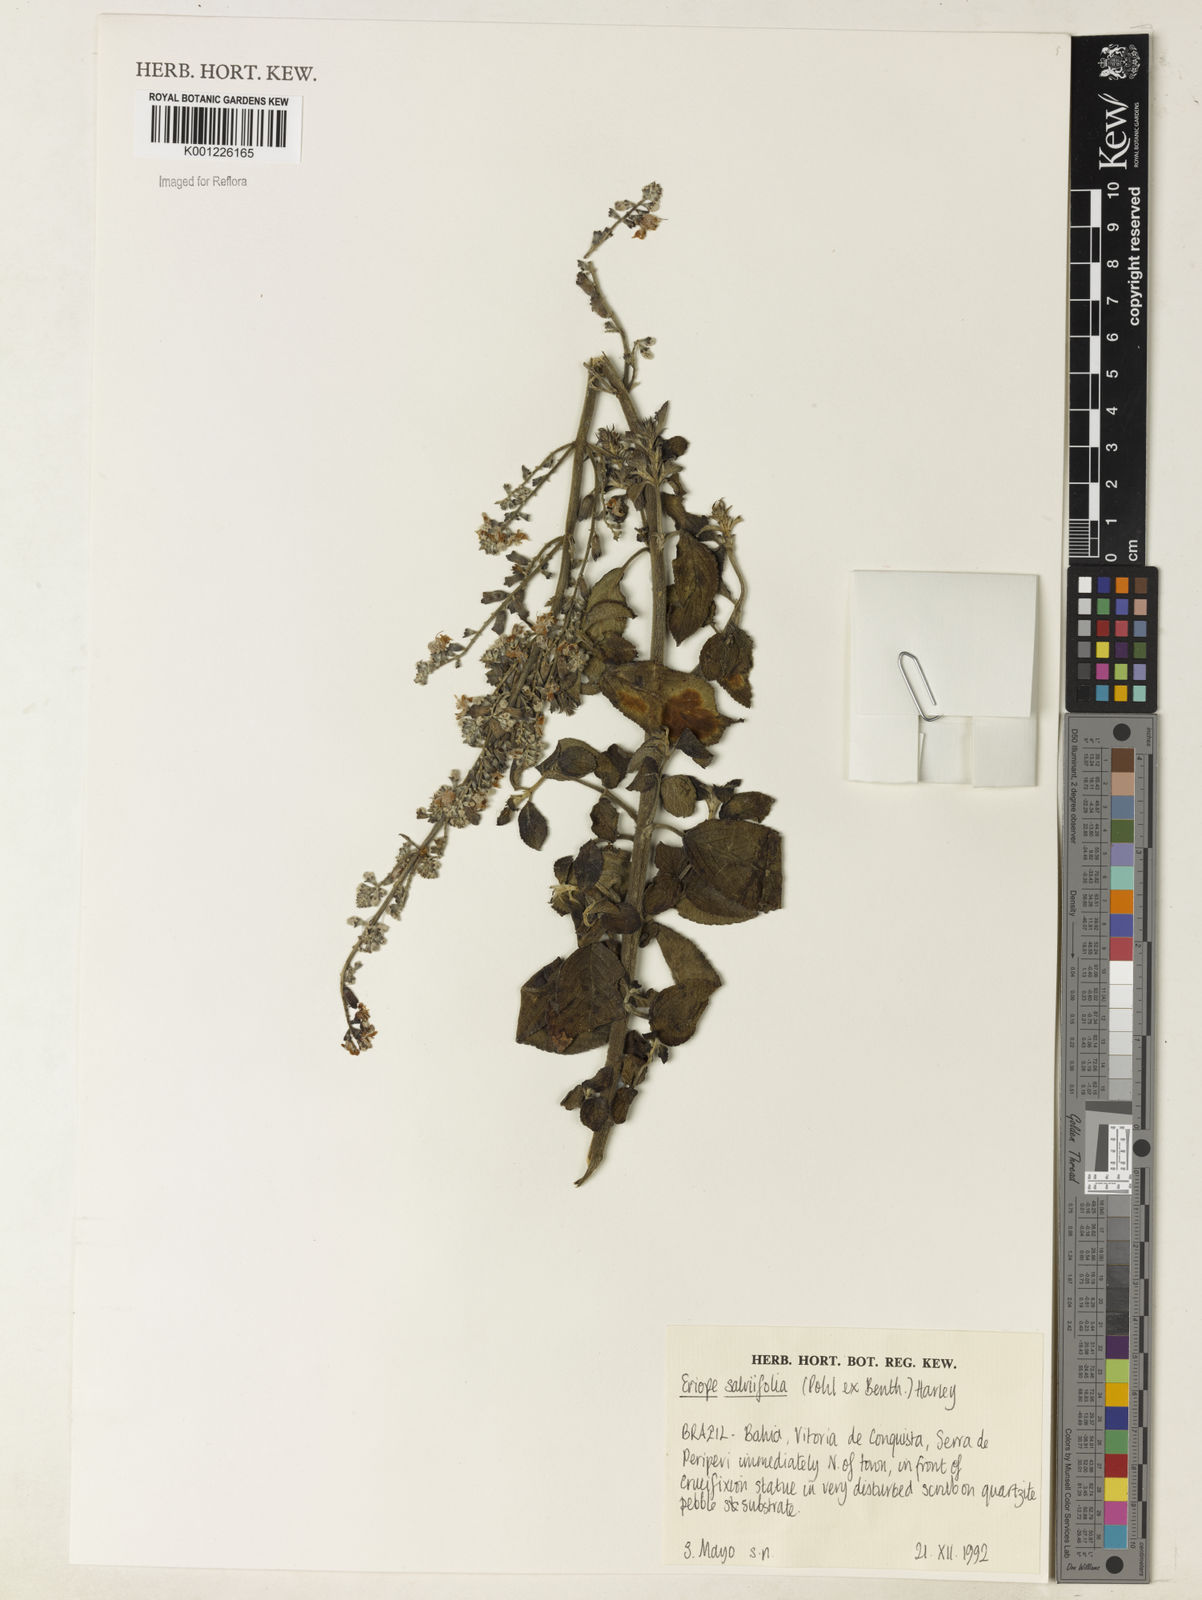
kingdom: Plantae
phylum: Tracheophyta
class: Magnoliopsida
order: Lamiales
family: Lamiaceae
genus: Eriope
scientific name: Eriope salviifolia
